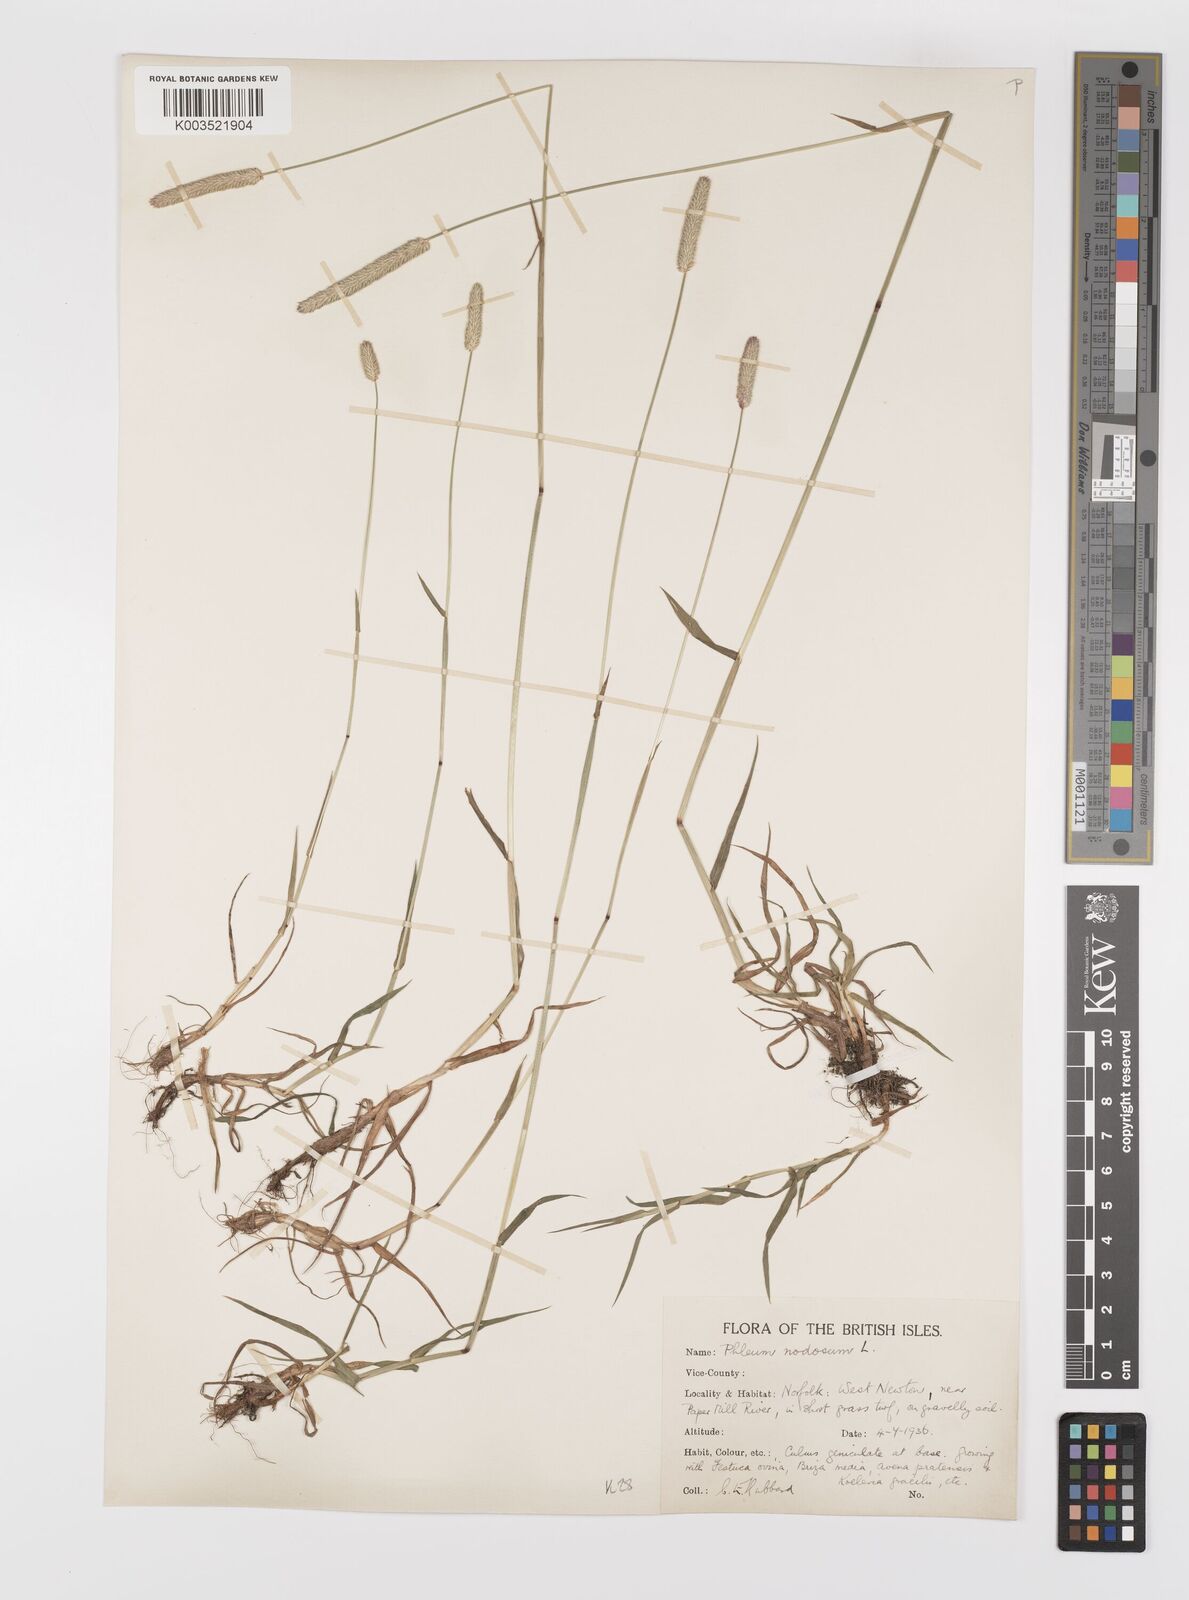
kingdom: Plantae
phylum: Tracheophyta
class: Liliopsida
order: Poales
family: Poaceae
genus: Phleum
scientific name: Phleum bertolonii
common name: Smaller cat's-tail
